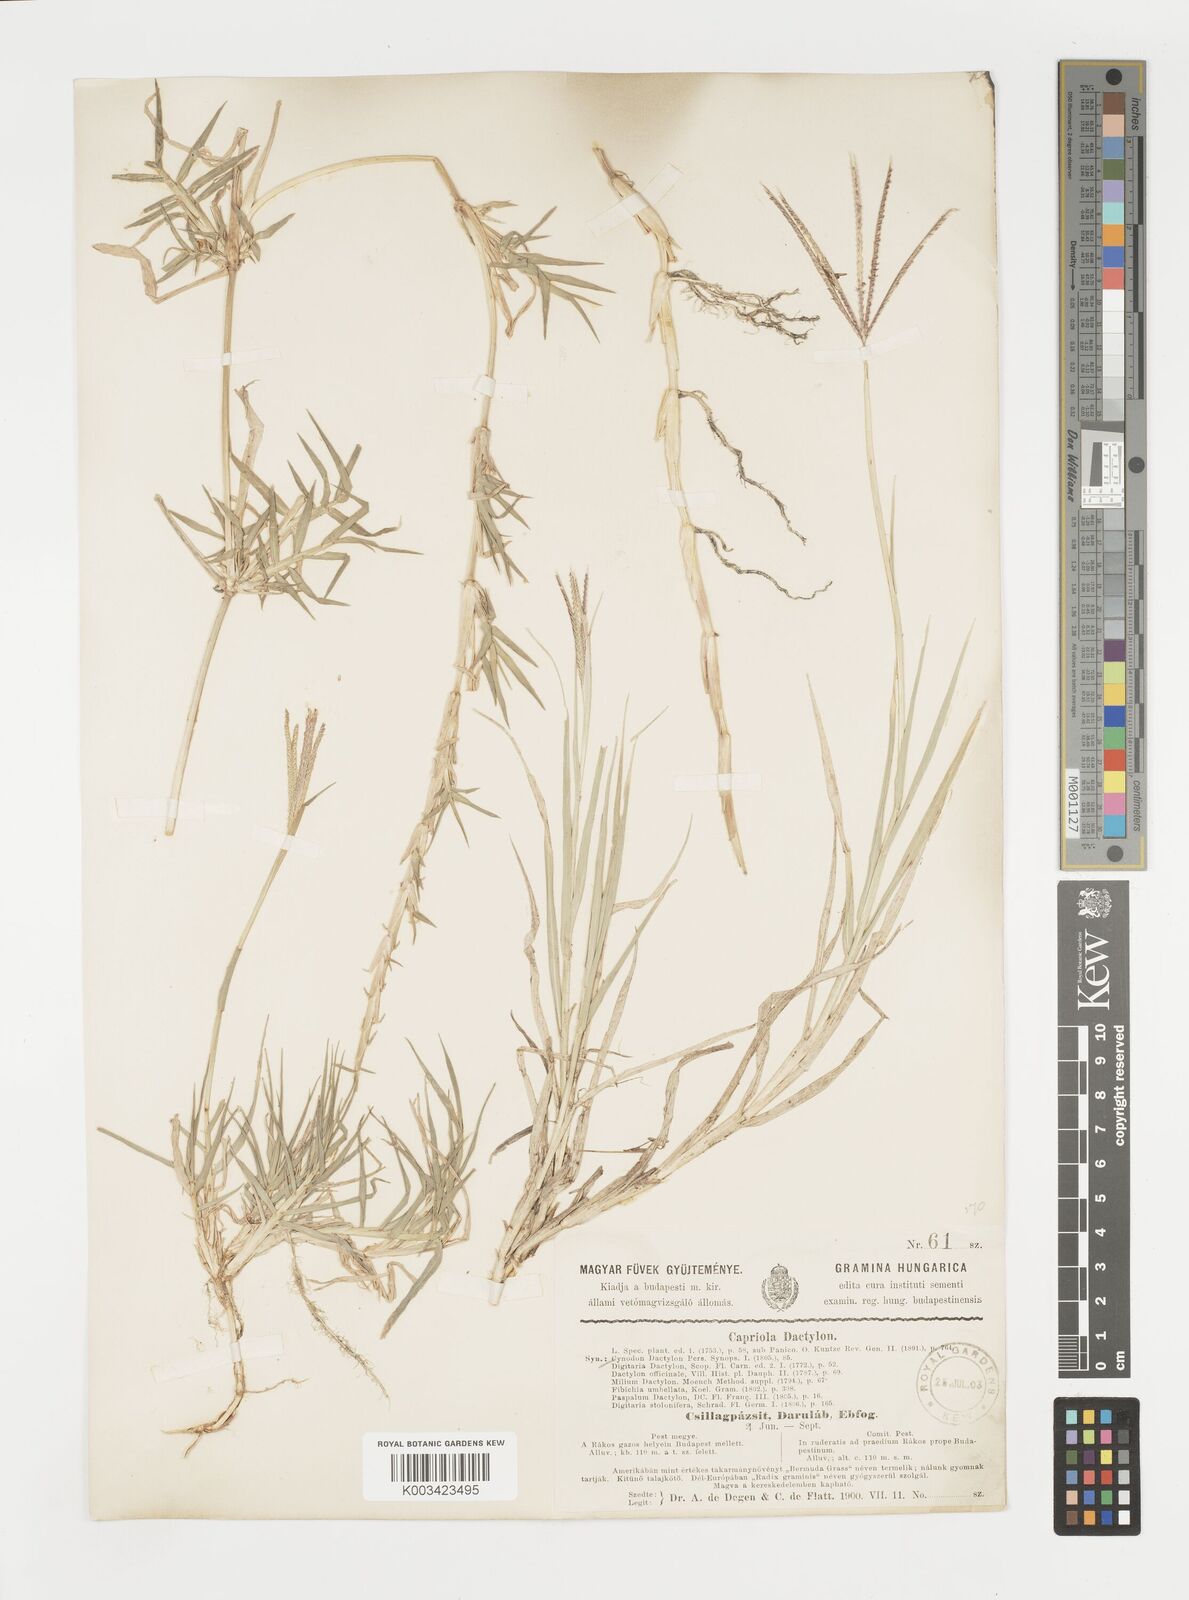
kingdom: Plantae
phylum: Tracheophyta
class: Liliopsida
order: Poales
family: Poaceae
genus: Cynodon
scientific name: Cynodon dactylon
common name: Bermuda grass
